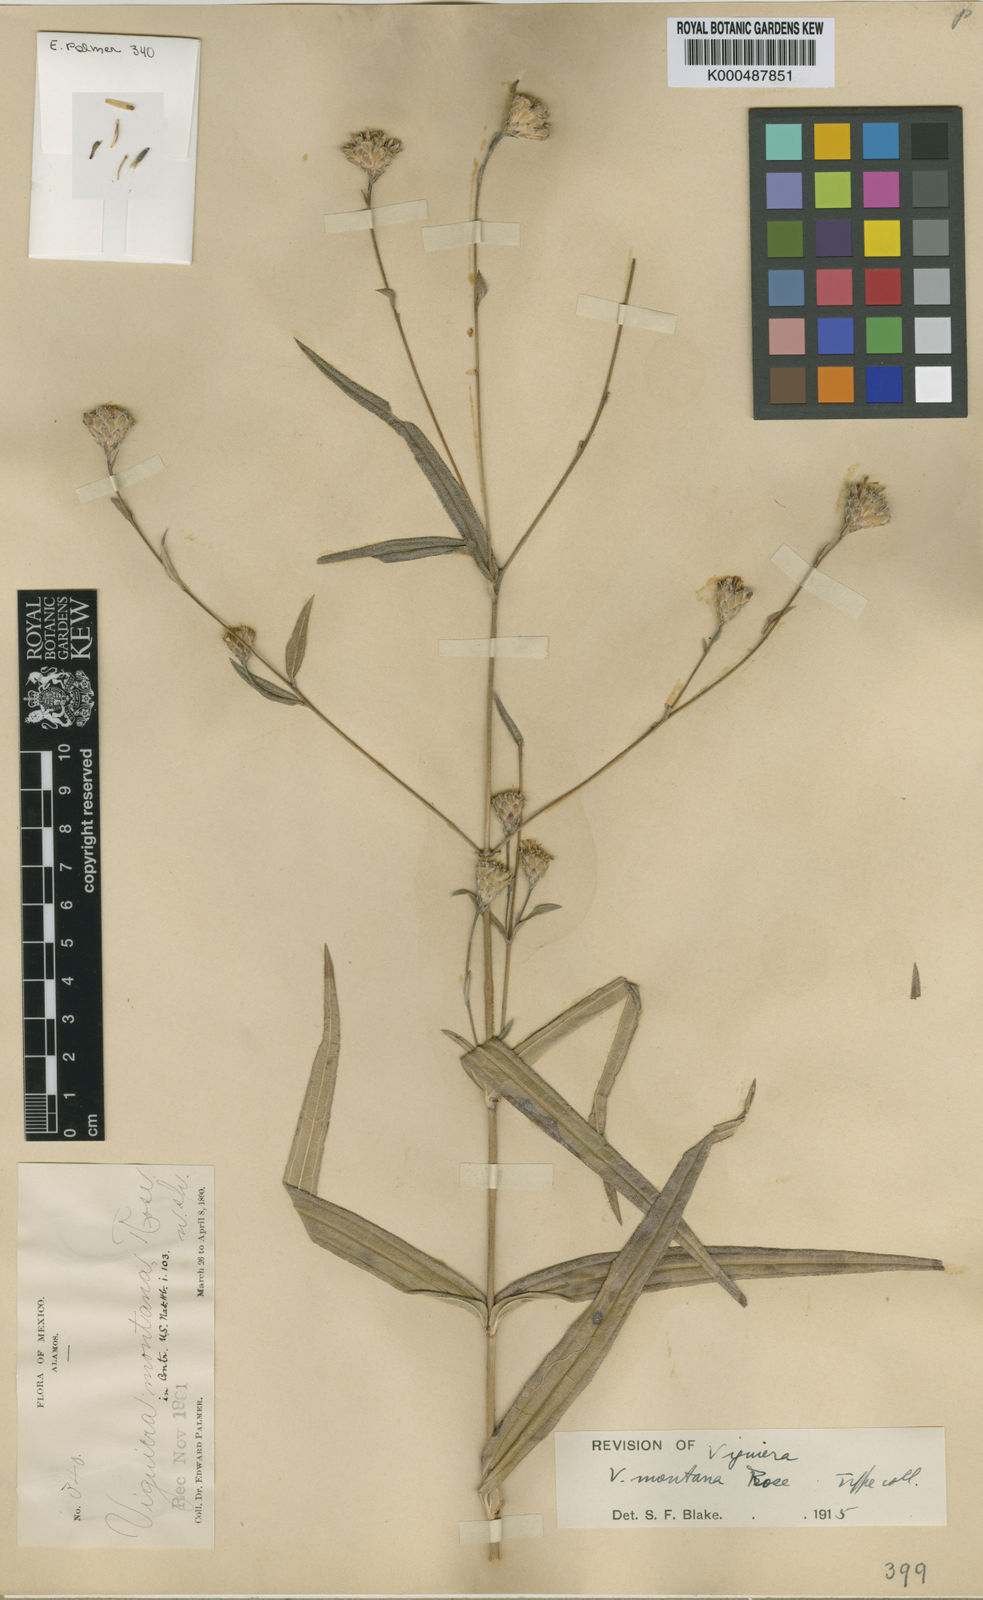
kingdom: Plantae
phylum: Tracheophyta
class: Magnoliopsida
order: Asterales
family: Asteraceae
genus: Aldama
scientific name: Aldama montana
